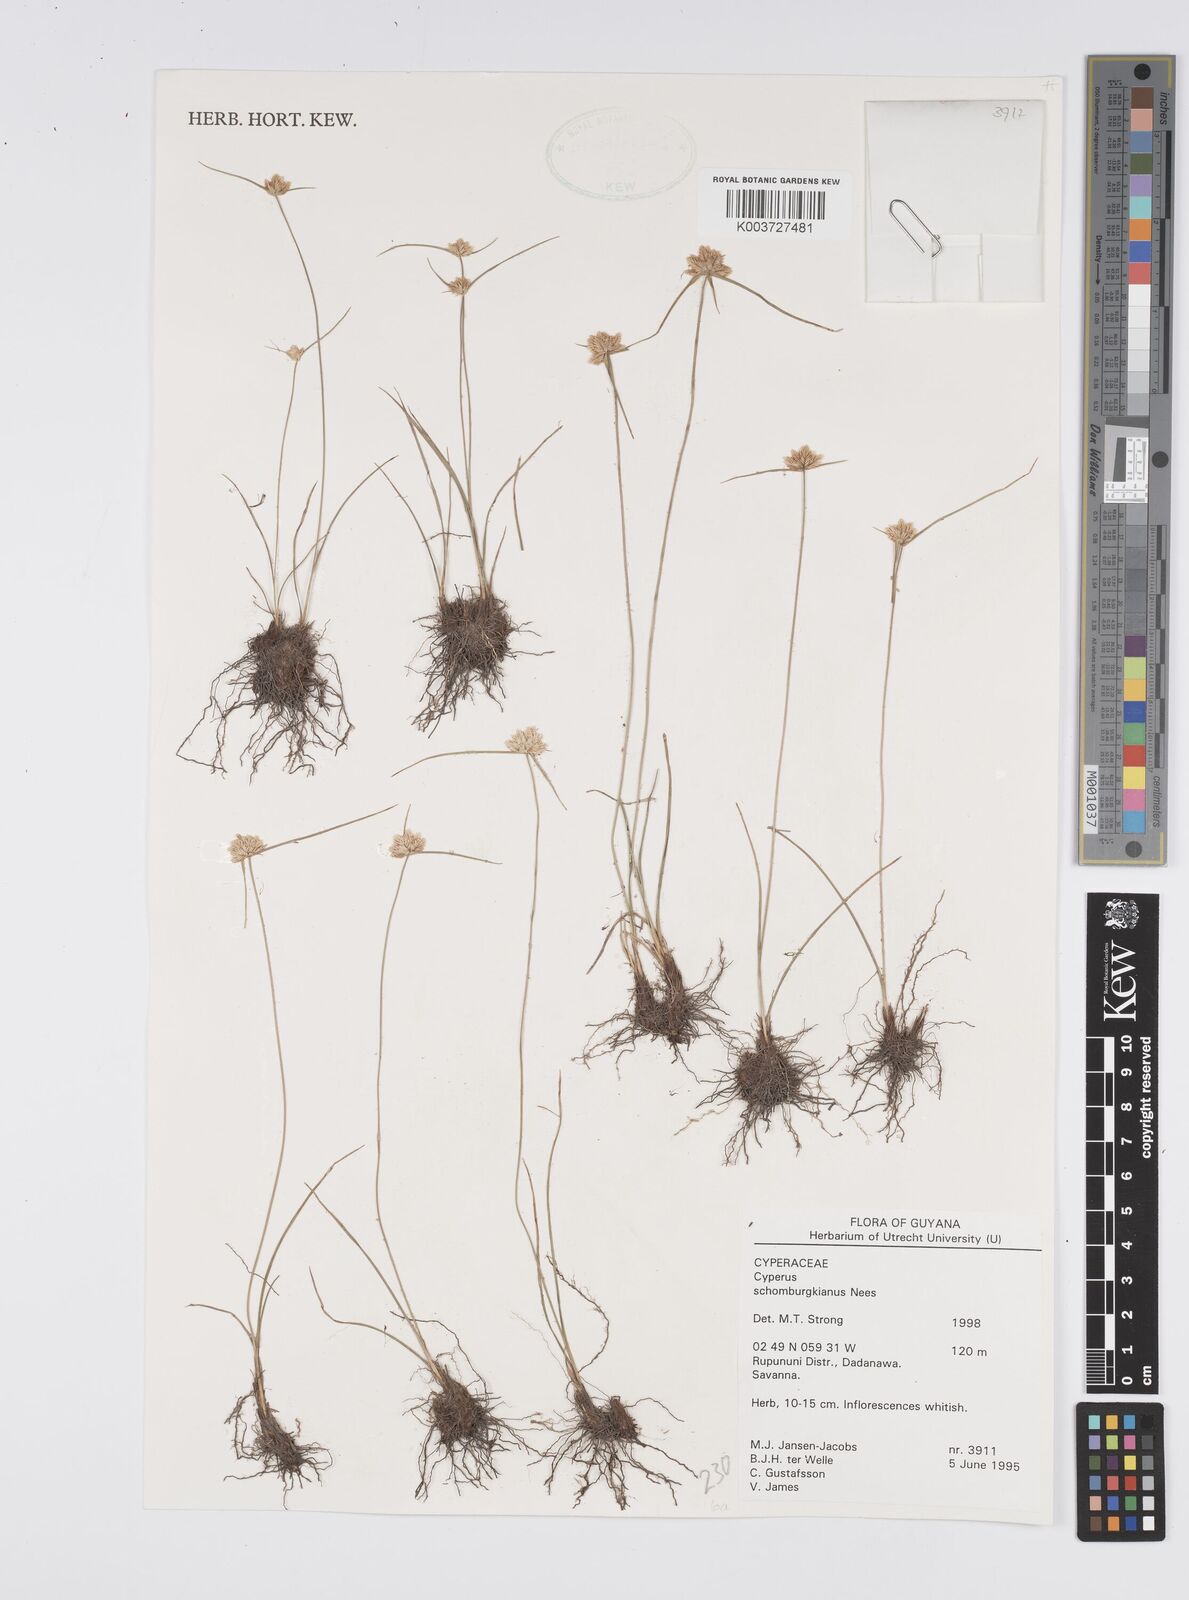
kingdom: Plantae
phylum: Tracheophyta
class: Liliopsida
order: Poales
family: Cyperaceae
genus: Cyperus
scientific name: Cyperus schomburgkianus
